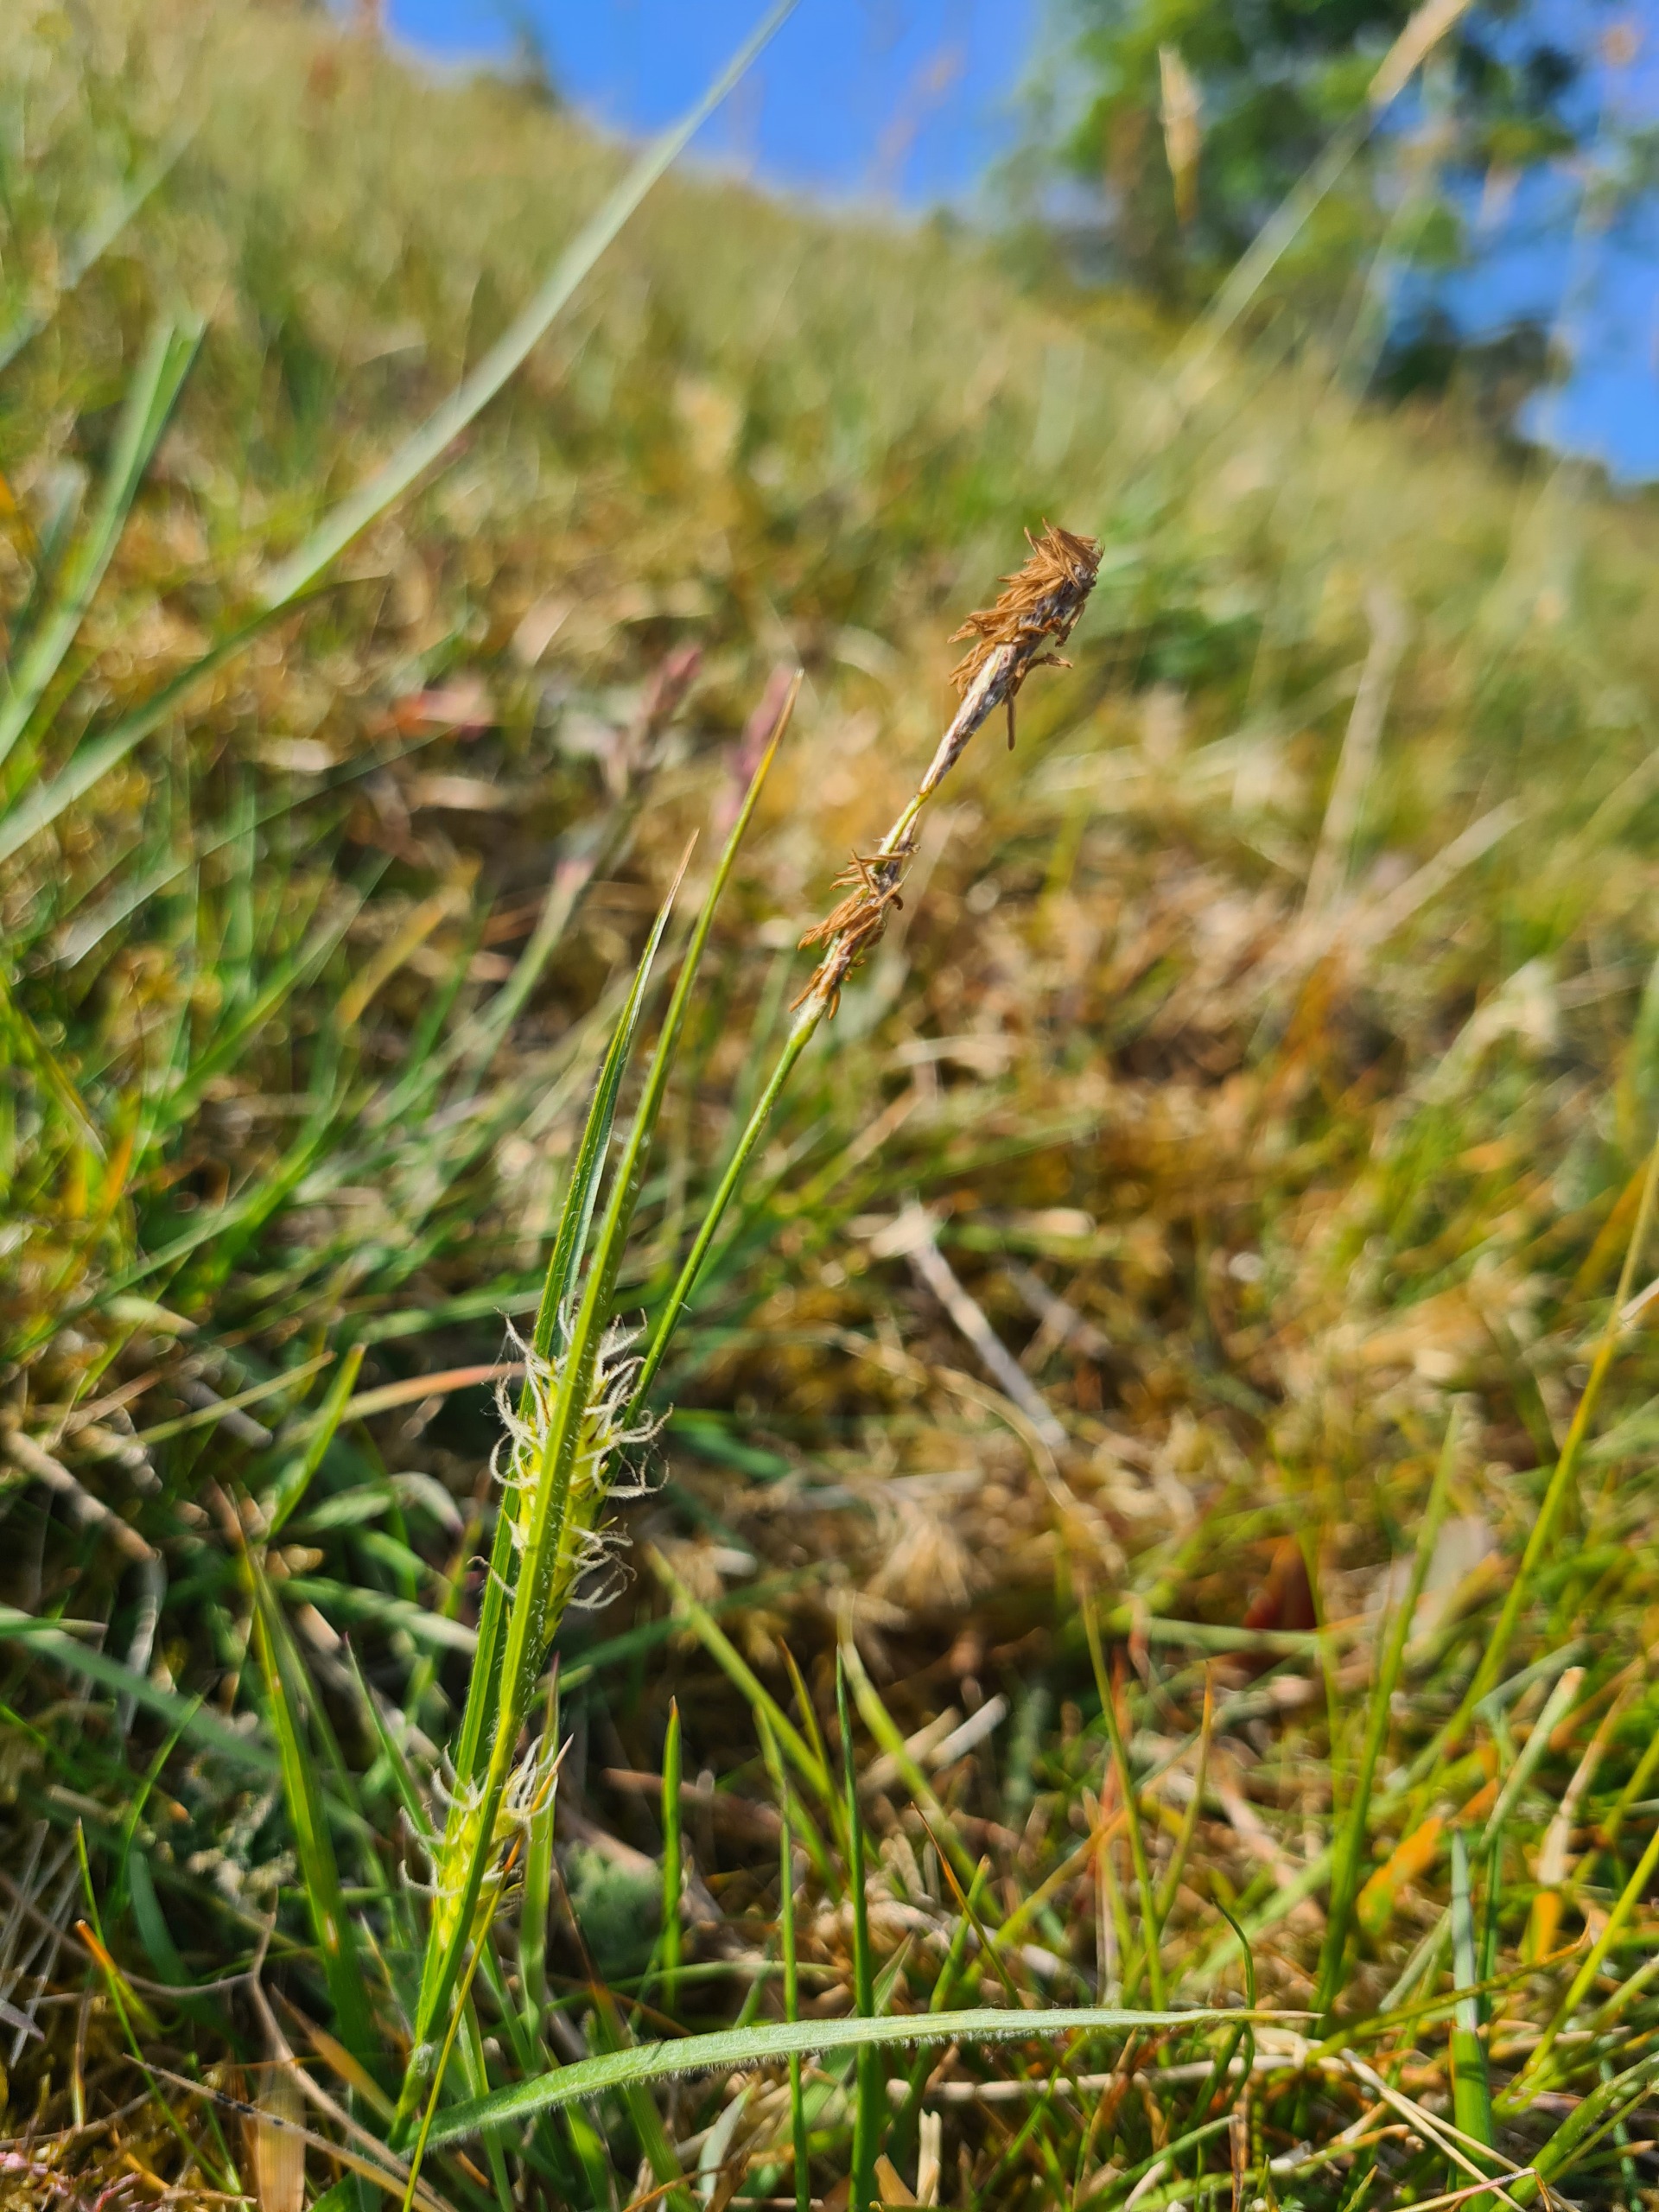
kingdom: Plantae
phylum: Tracheophyta
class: Liliopsida
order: Poales
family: Cyperaceae
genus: Carex
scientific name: Carex hirta
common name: Håret star
